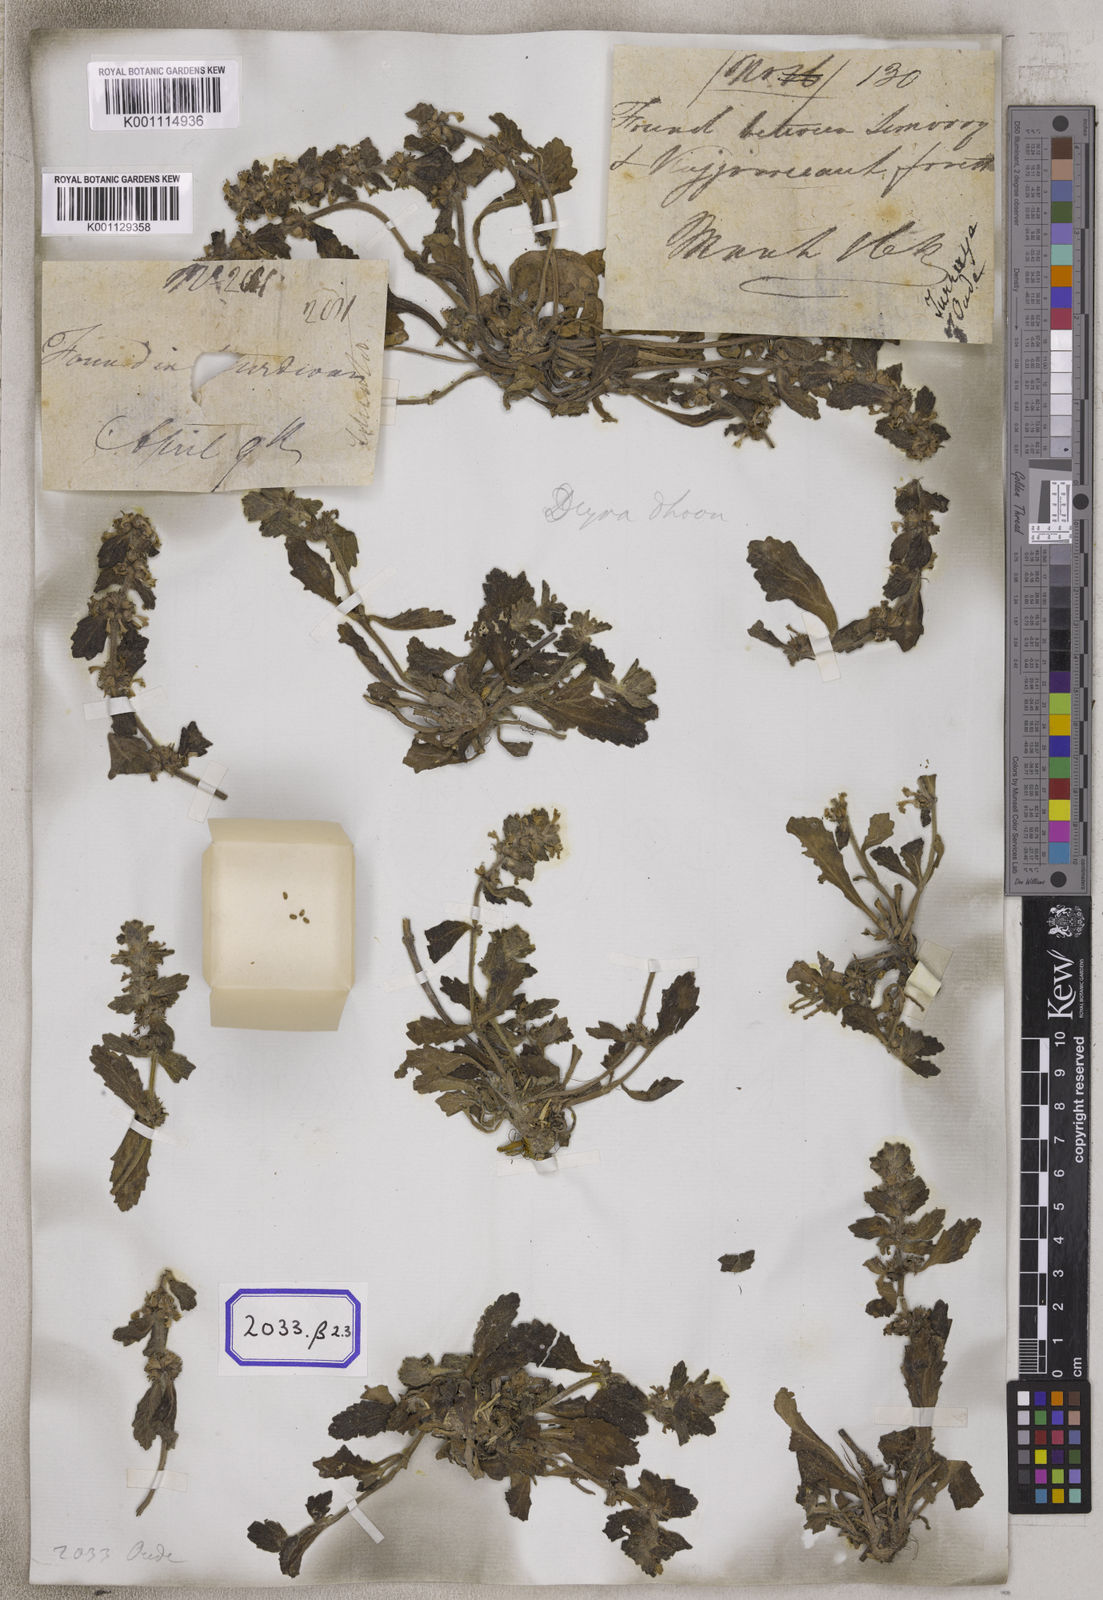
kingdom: Plantae
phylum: Tracheophyta
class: Magnoliopsida
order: Lamiales
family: Lamiaceae
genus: Ajuga
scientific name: Ajuga
